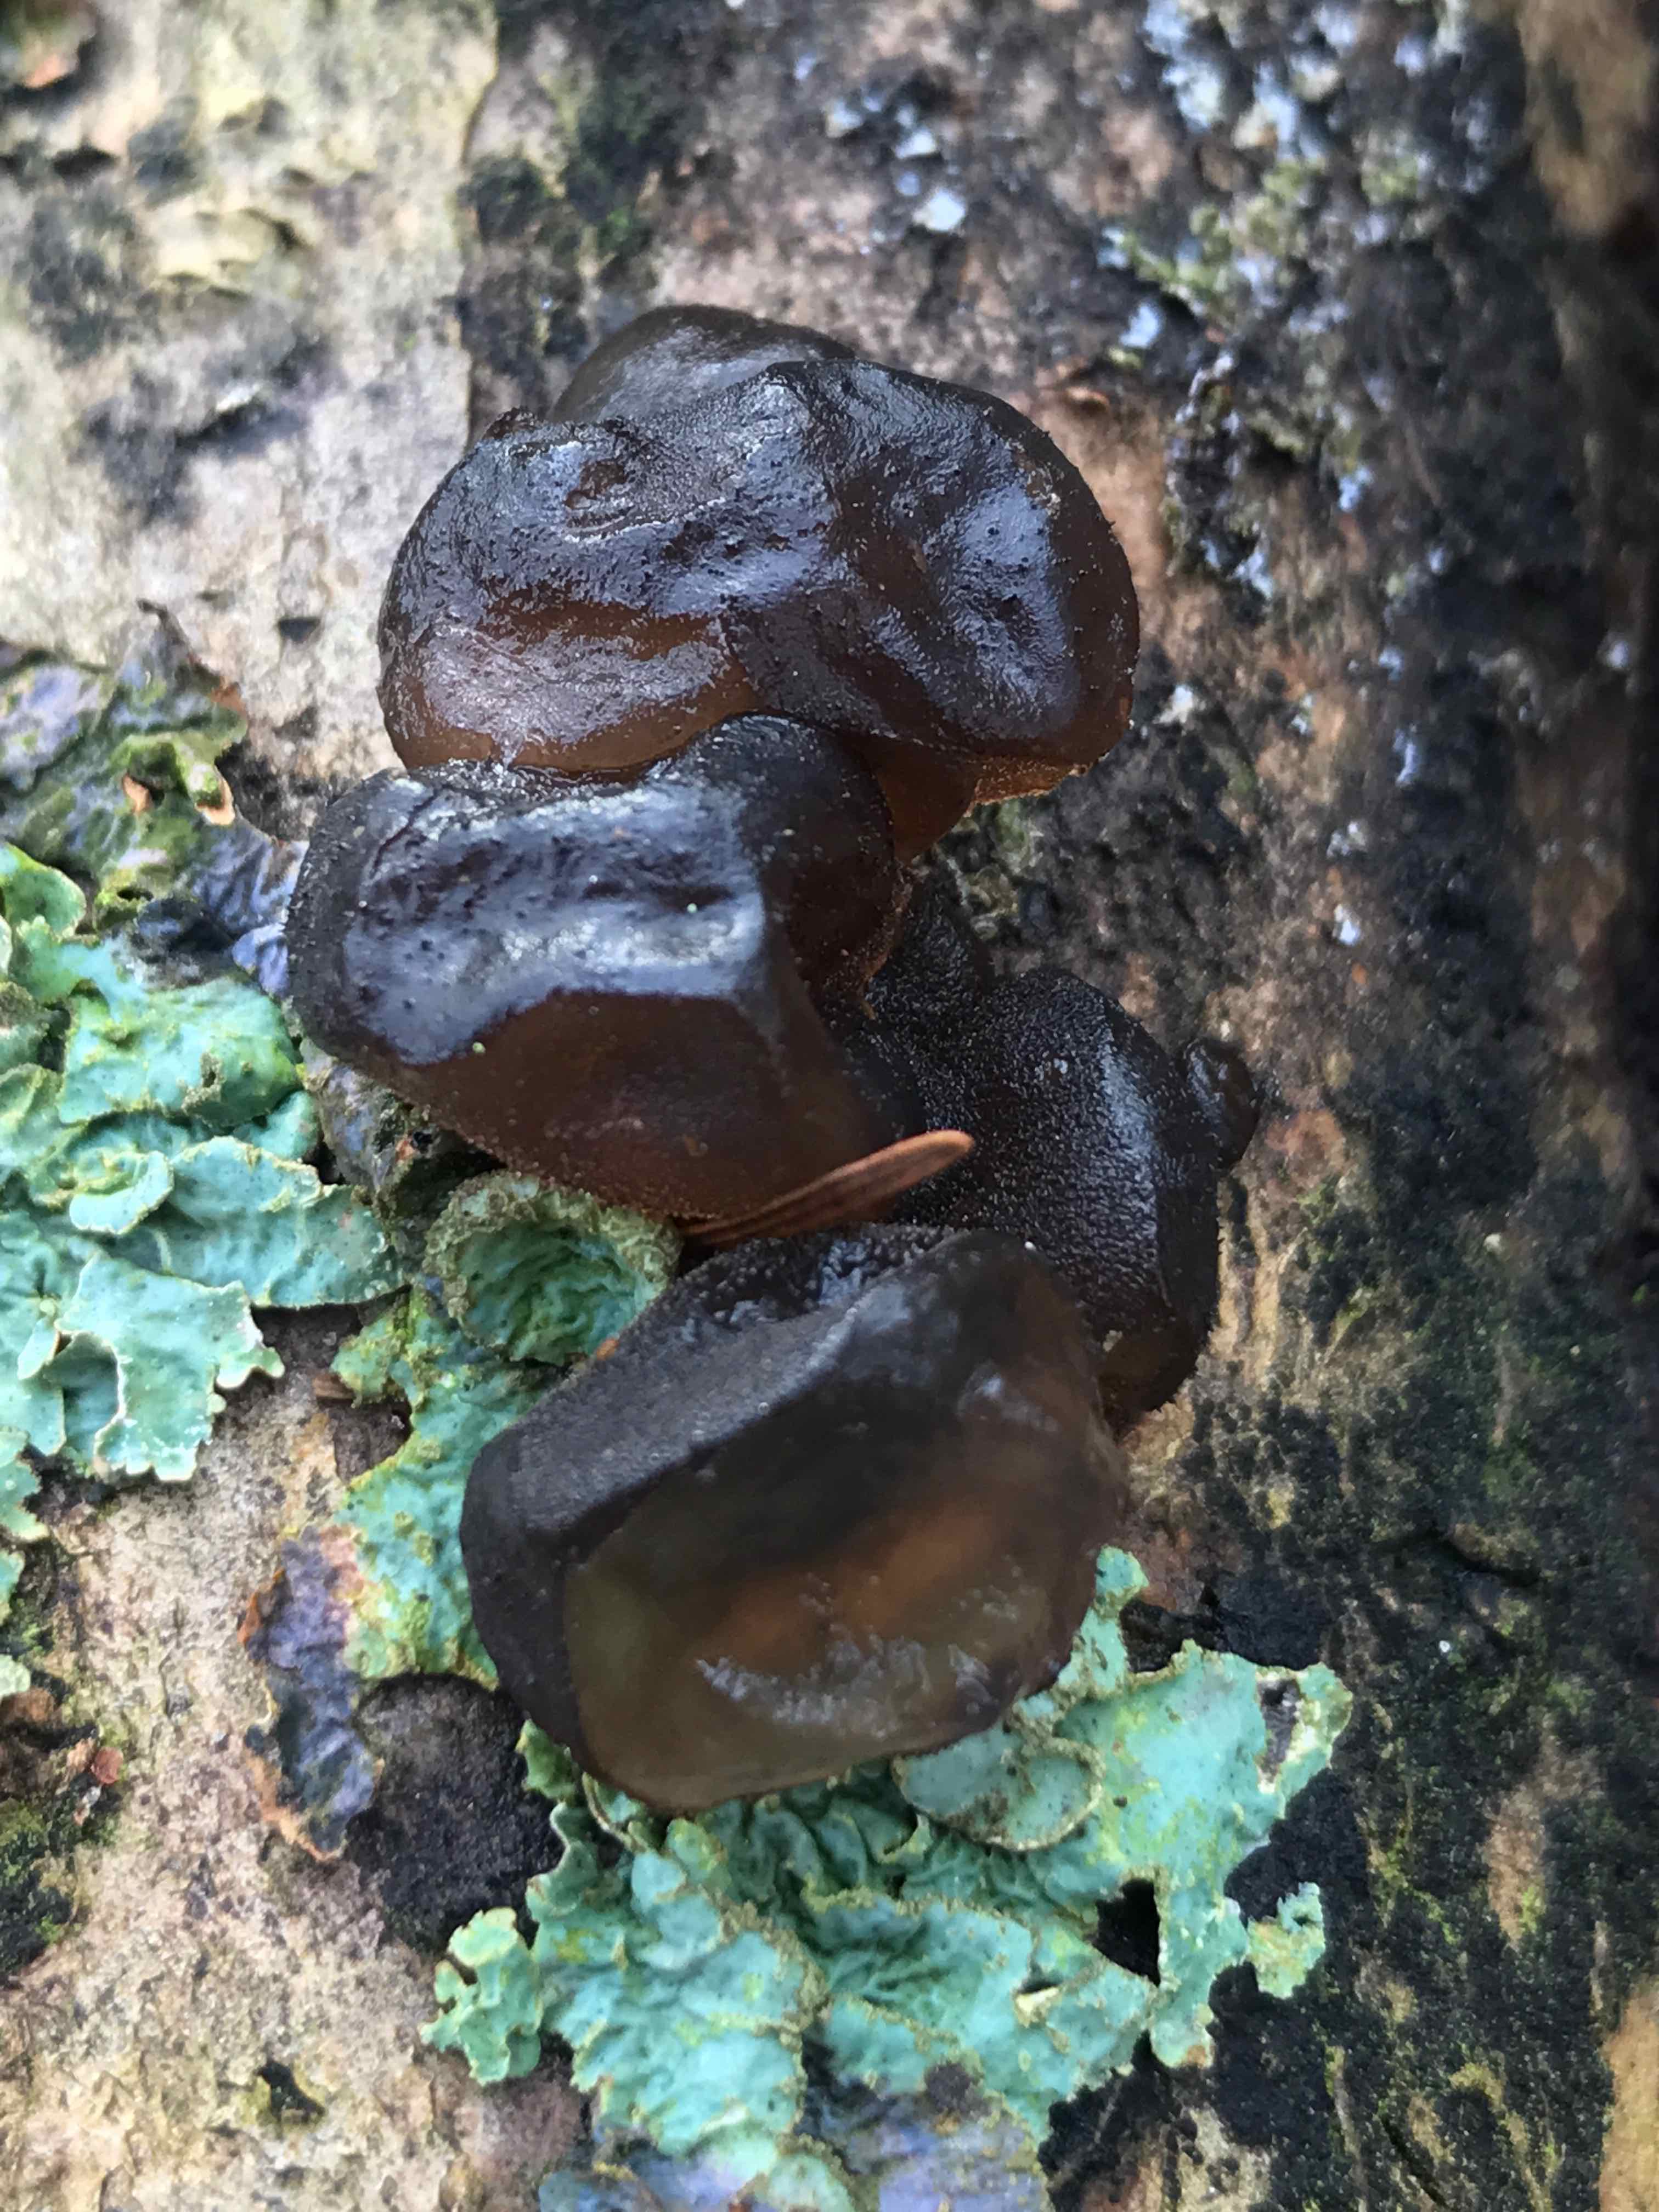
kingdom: Fungi
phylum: Basidiomycota
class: Agaricomycetes
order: Auriculariales
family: Auriculariaceae
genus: Exidia
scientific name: Exidia glandulosa
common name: ege-bævretop
